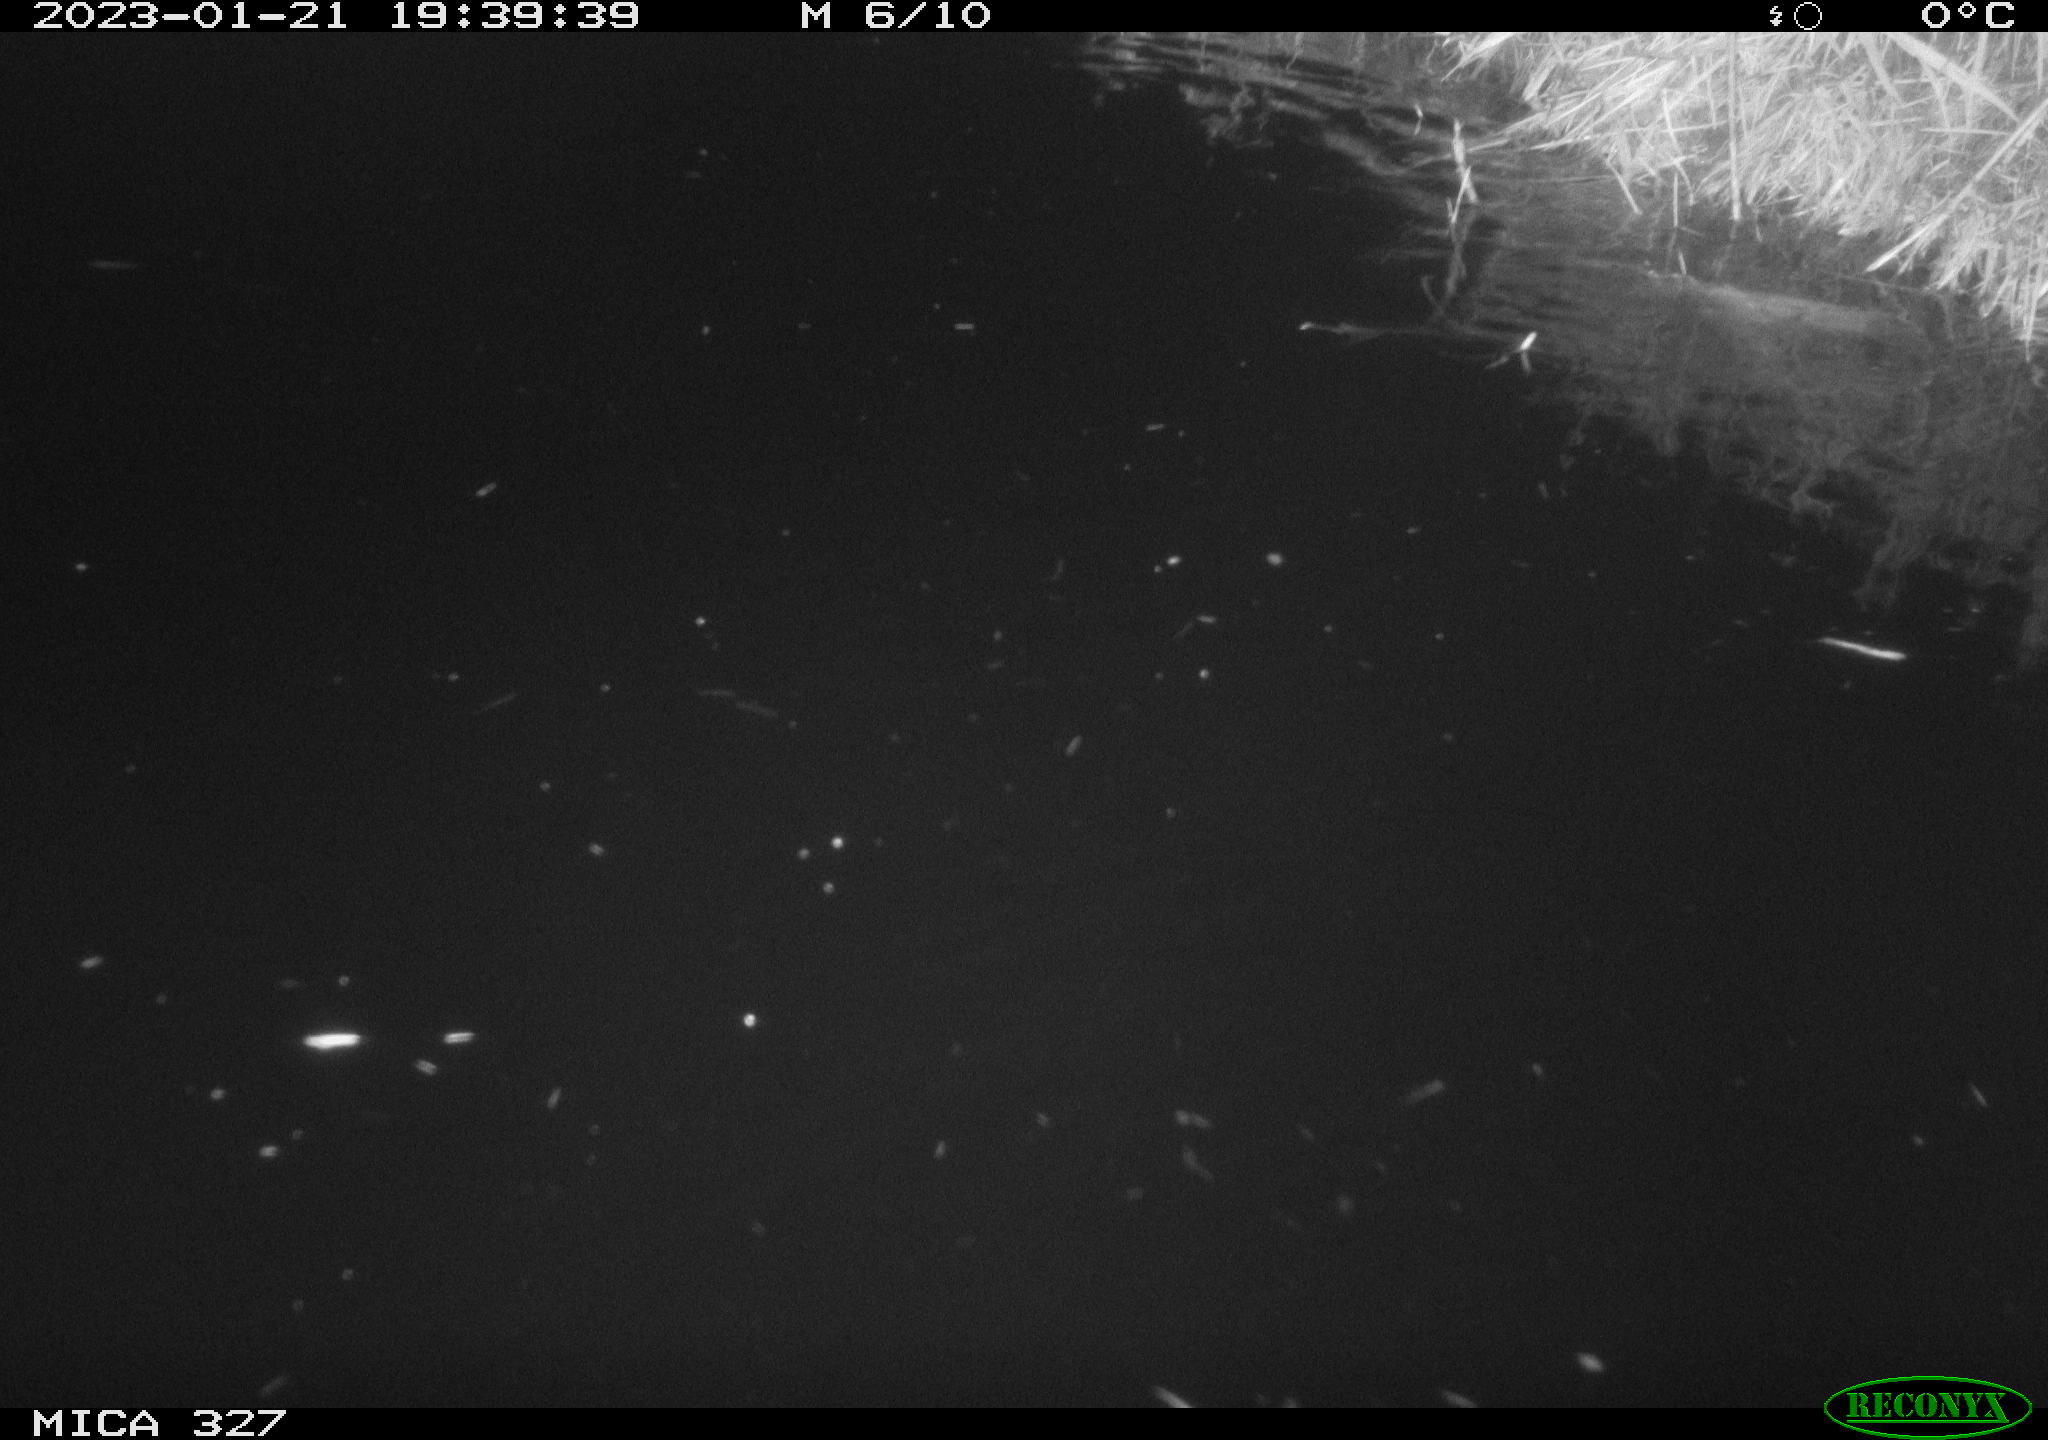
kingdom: Animalia
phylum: Chordata
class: Mammalia
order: Rodentia
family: Cricetidae
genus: Ondatra
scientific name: Ondatra zibethicus
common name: Muskrat
